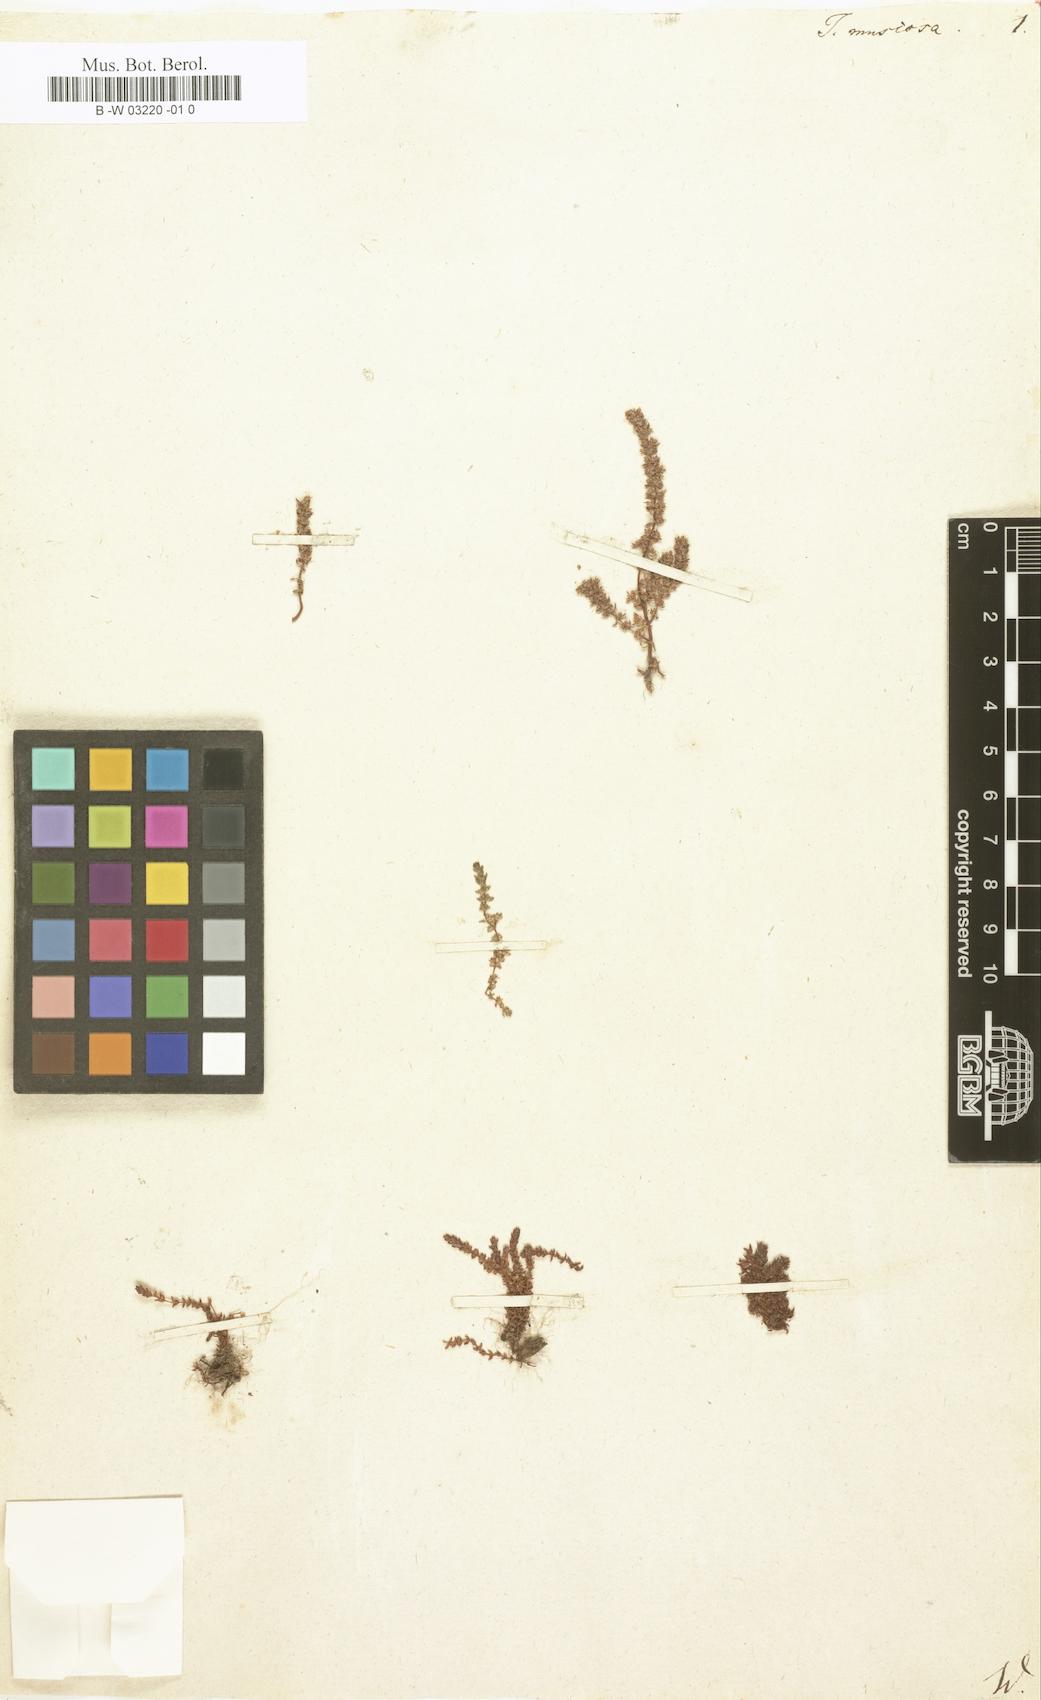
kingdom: Plantae
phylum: Tracheophyta
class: Magnoliopsida
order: Saxifragales
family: Crassulaceae
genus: Crassula
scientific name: Crassula
